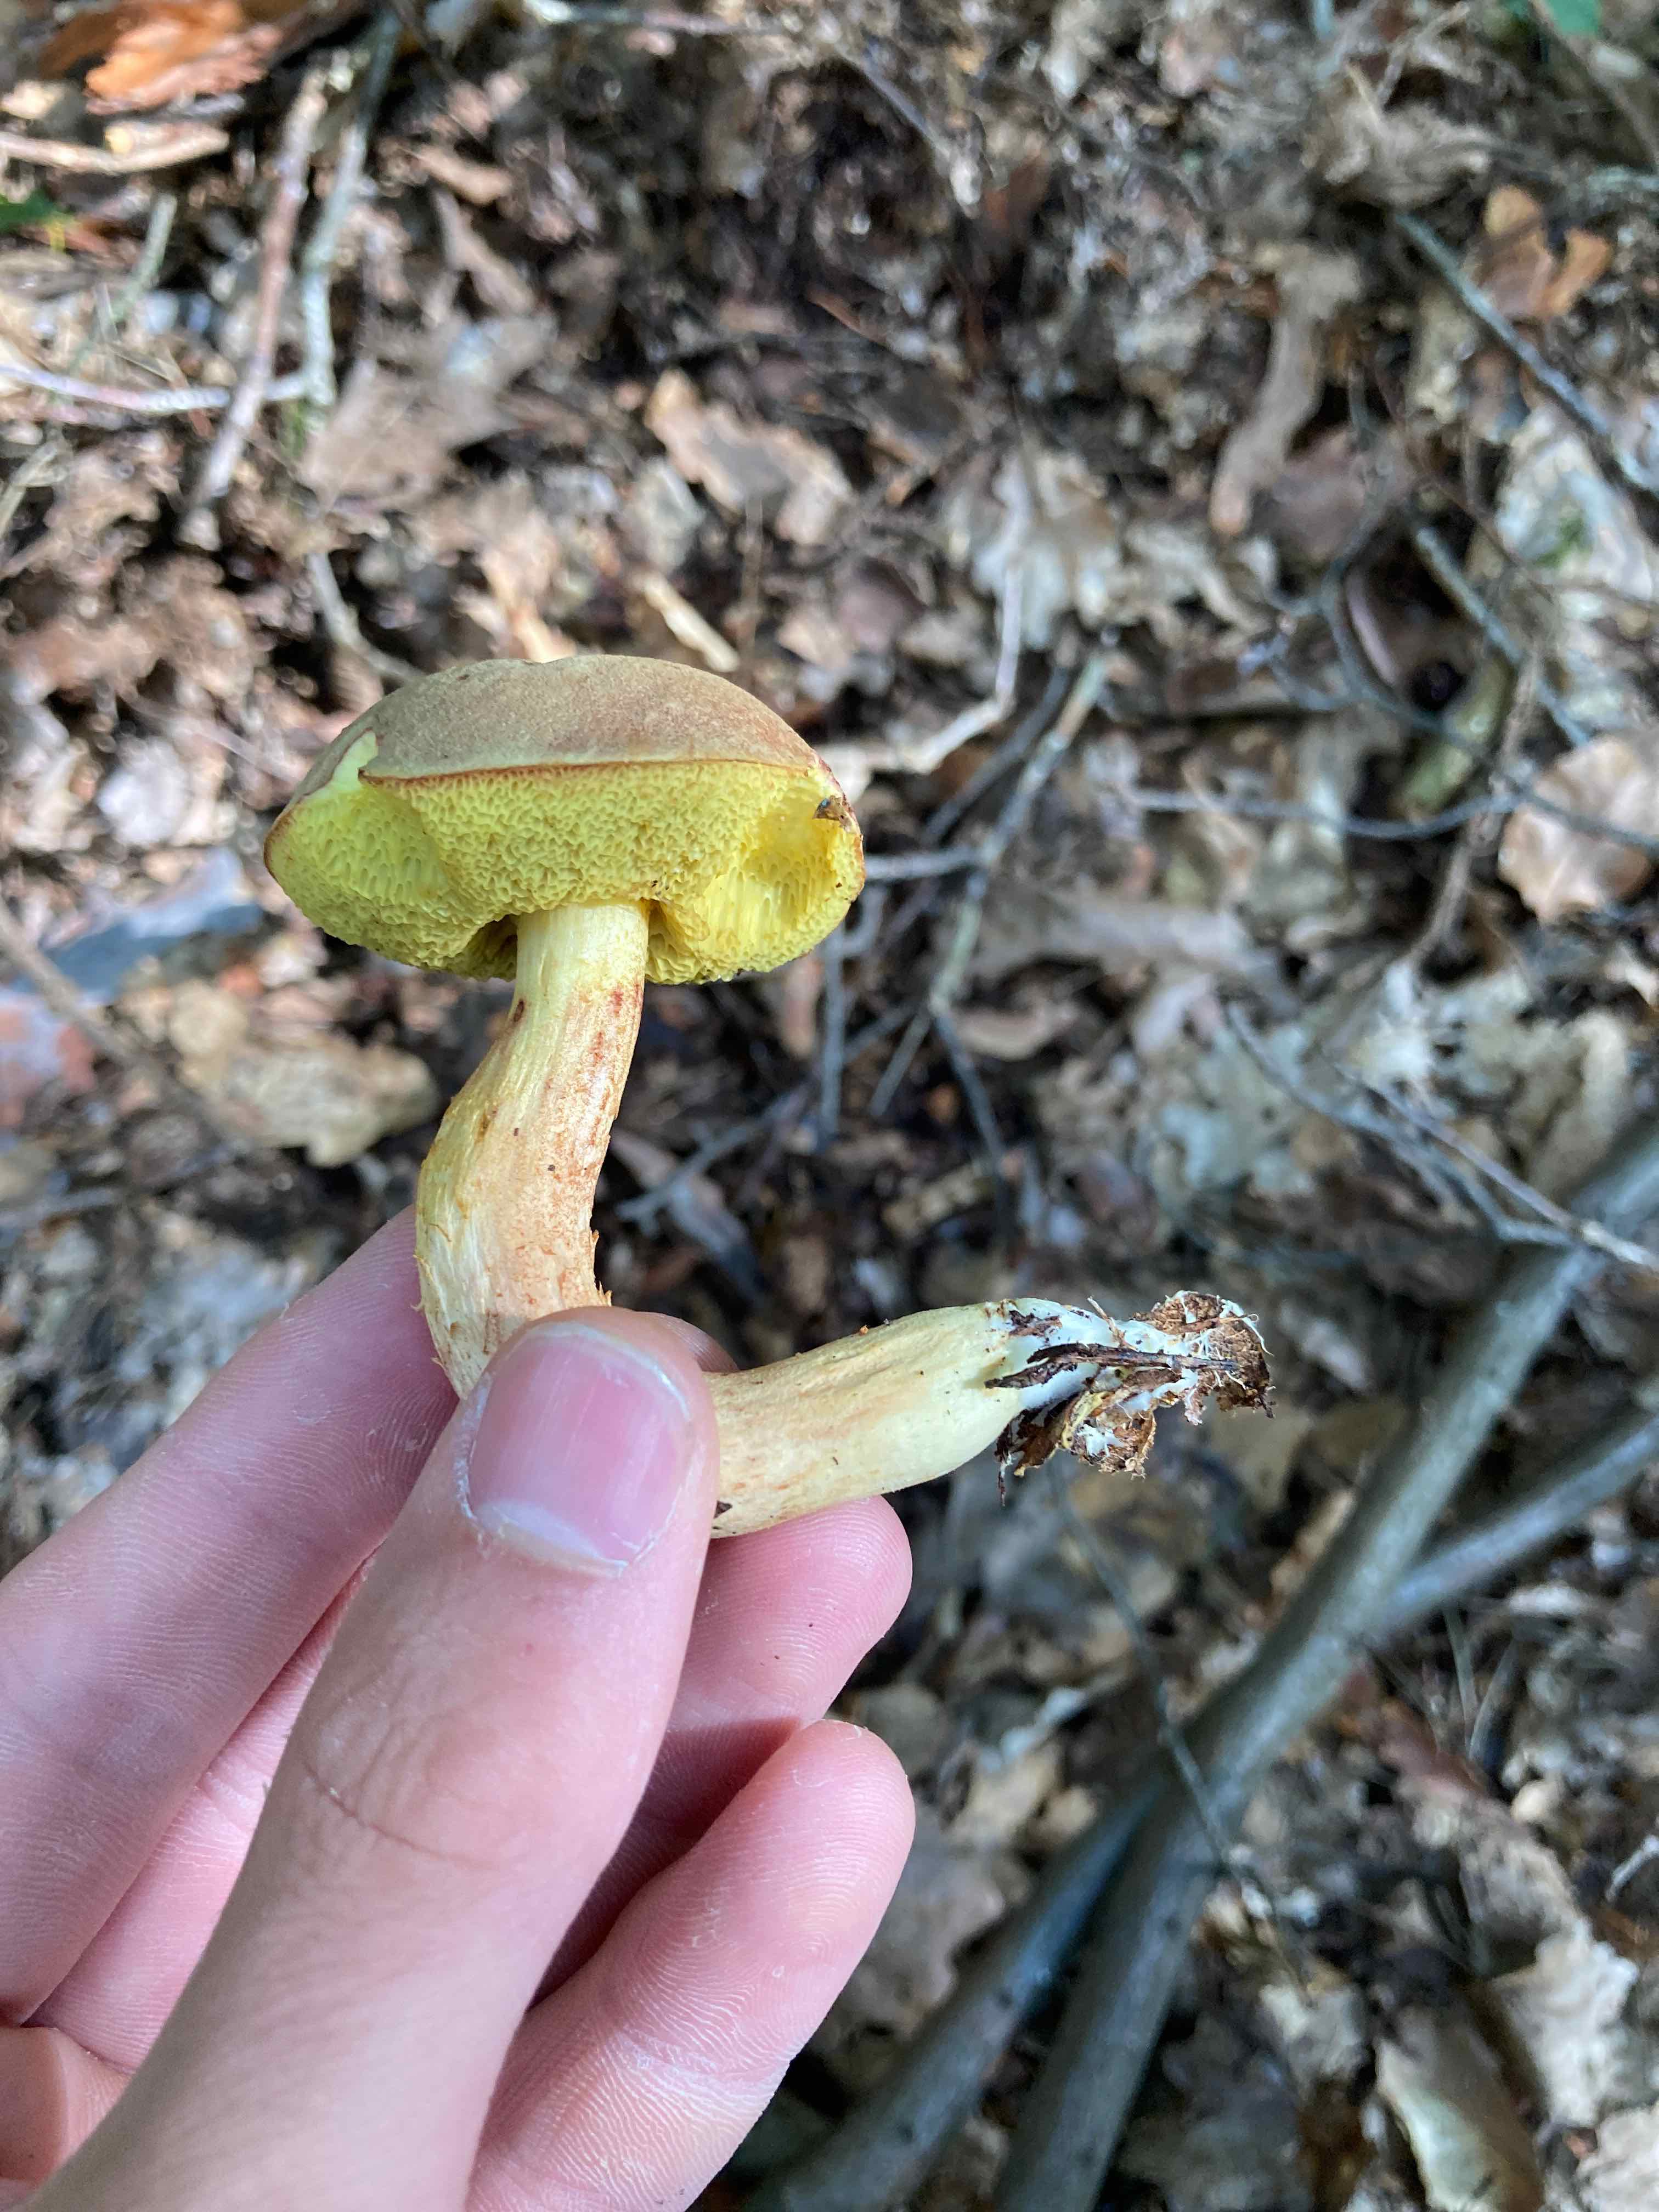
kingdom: Fungi
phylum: Basidiomycota
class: Agaricomycetes
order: Boletales
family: Boletaceae
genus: Xerocomus
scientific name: Xerocomus
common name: filtrørhat
